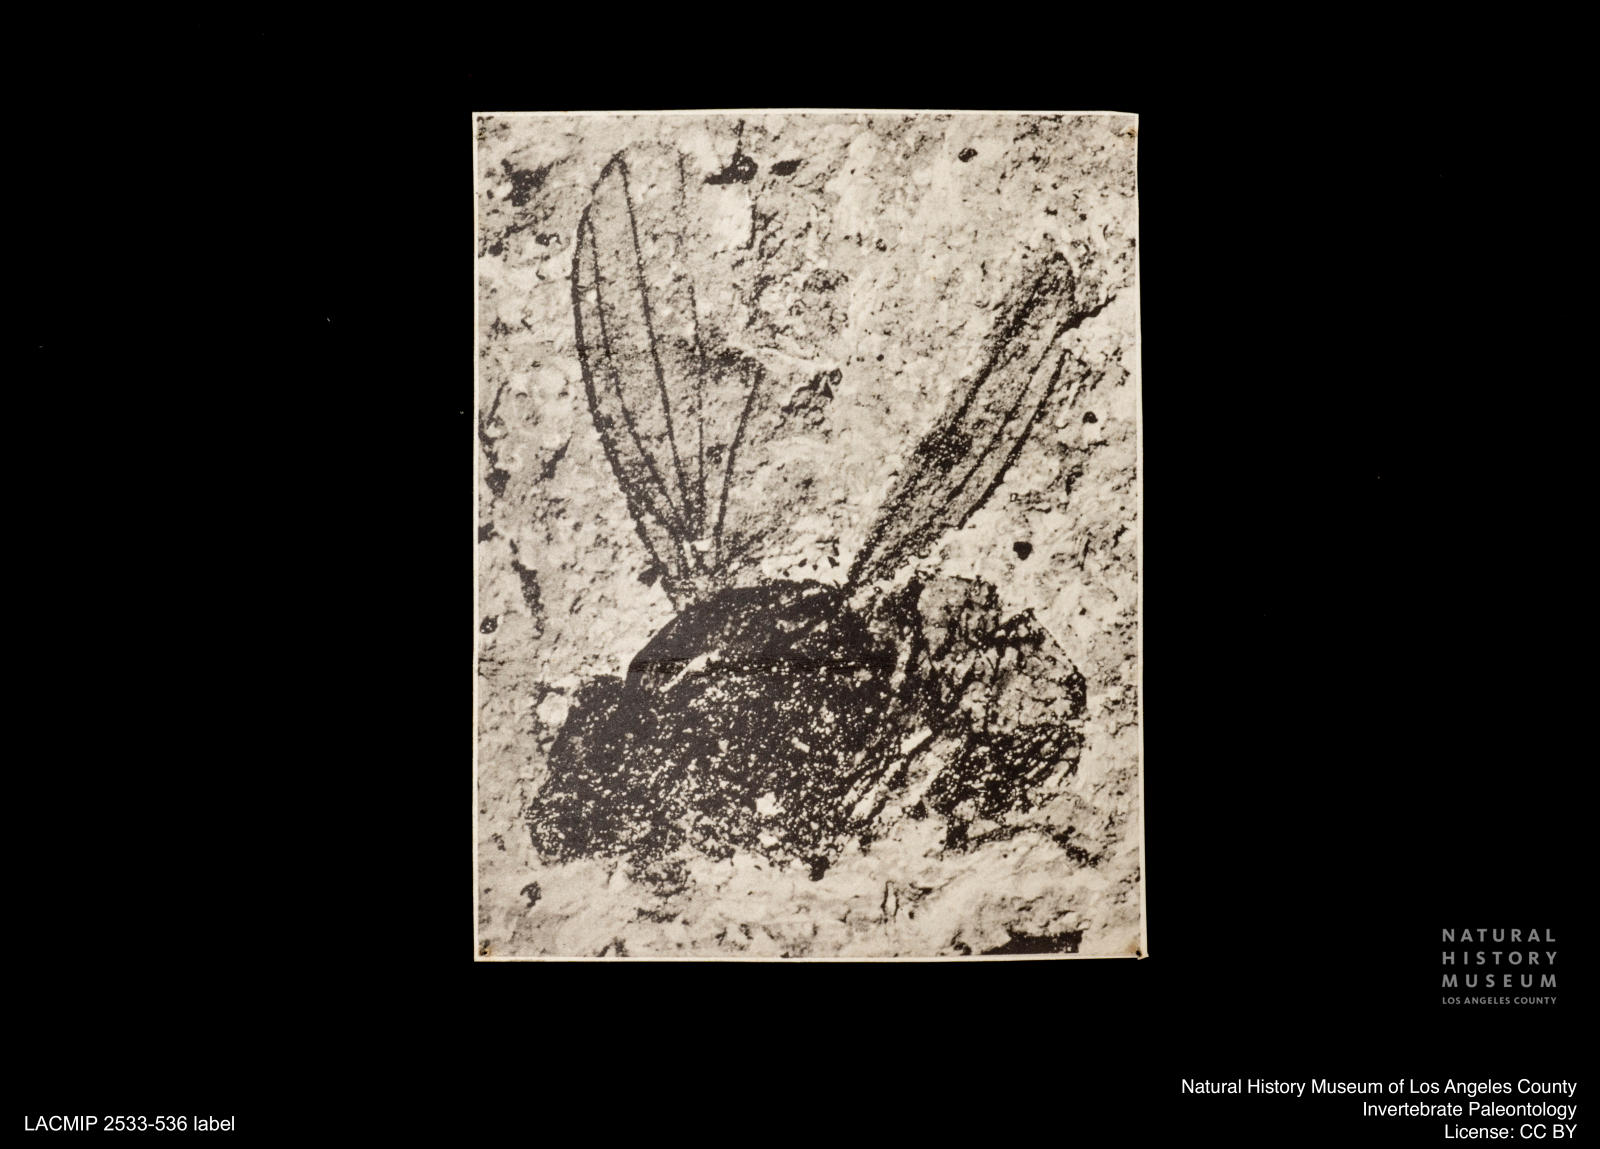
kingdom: Animalia
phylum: Arthropoda
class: Insecta
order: Diptera
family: Opomyzidae
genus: Opomyza
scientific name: Opomyza pelidua
